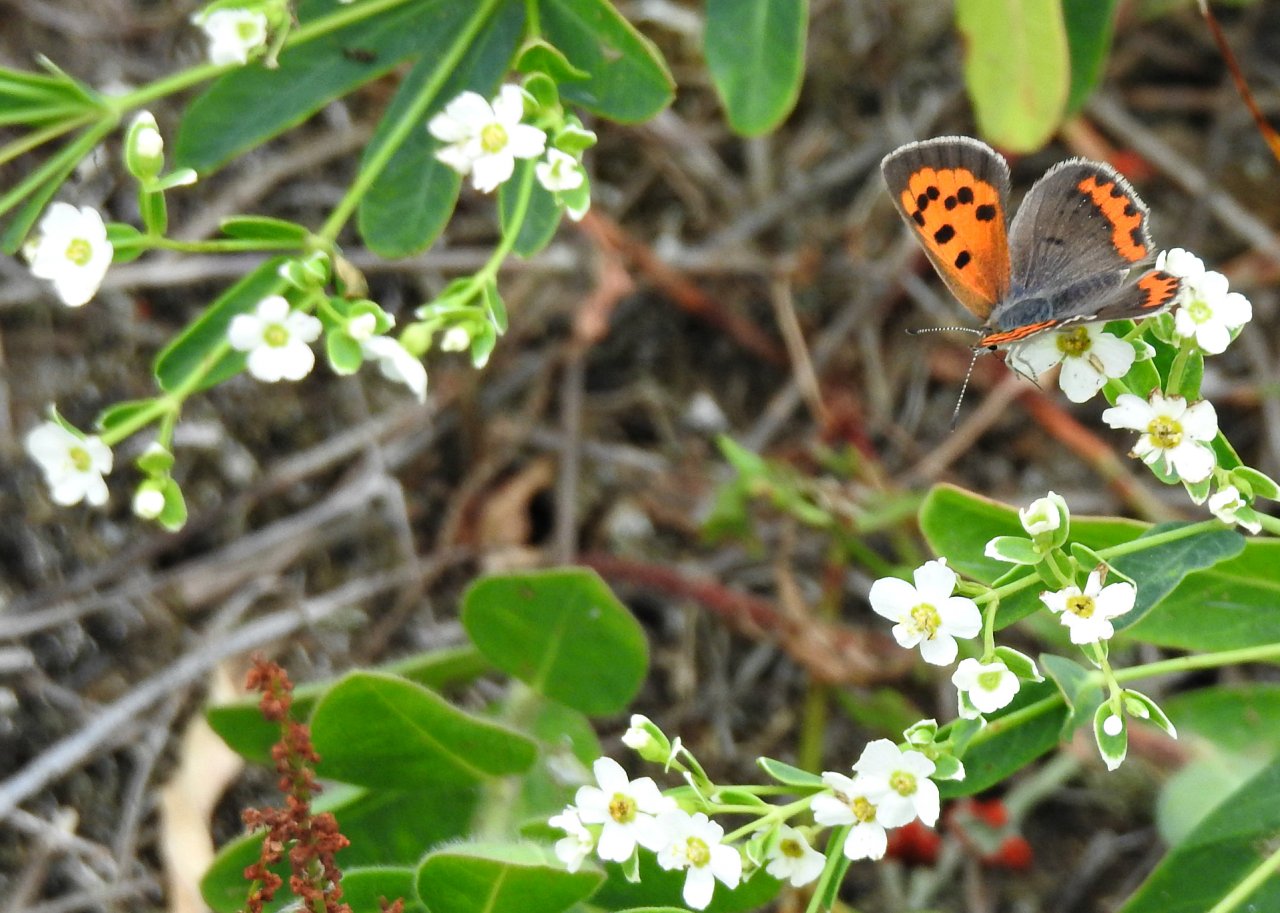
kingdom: Animalia
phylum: Arthropoda
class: Insecta
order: Lepidoptera
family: Lycaenidae
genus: Lycaena
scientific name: Lycaena phlaeas
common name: American Copper
